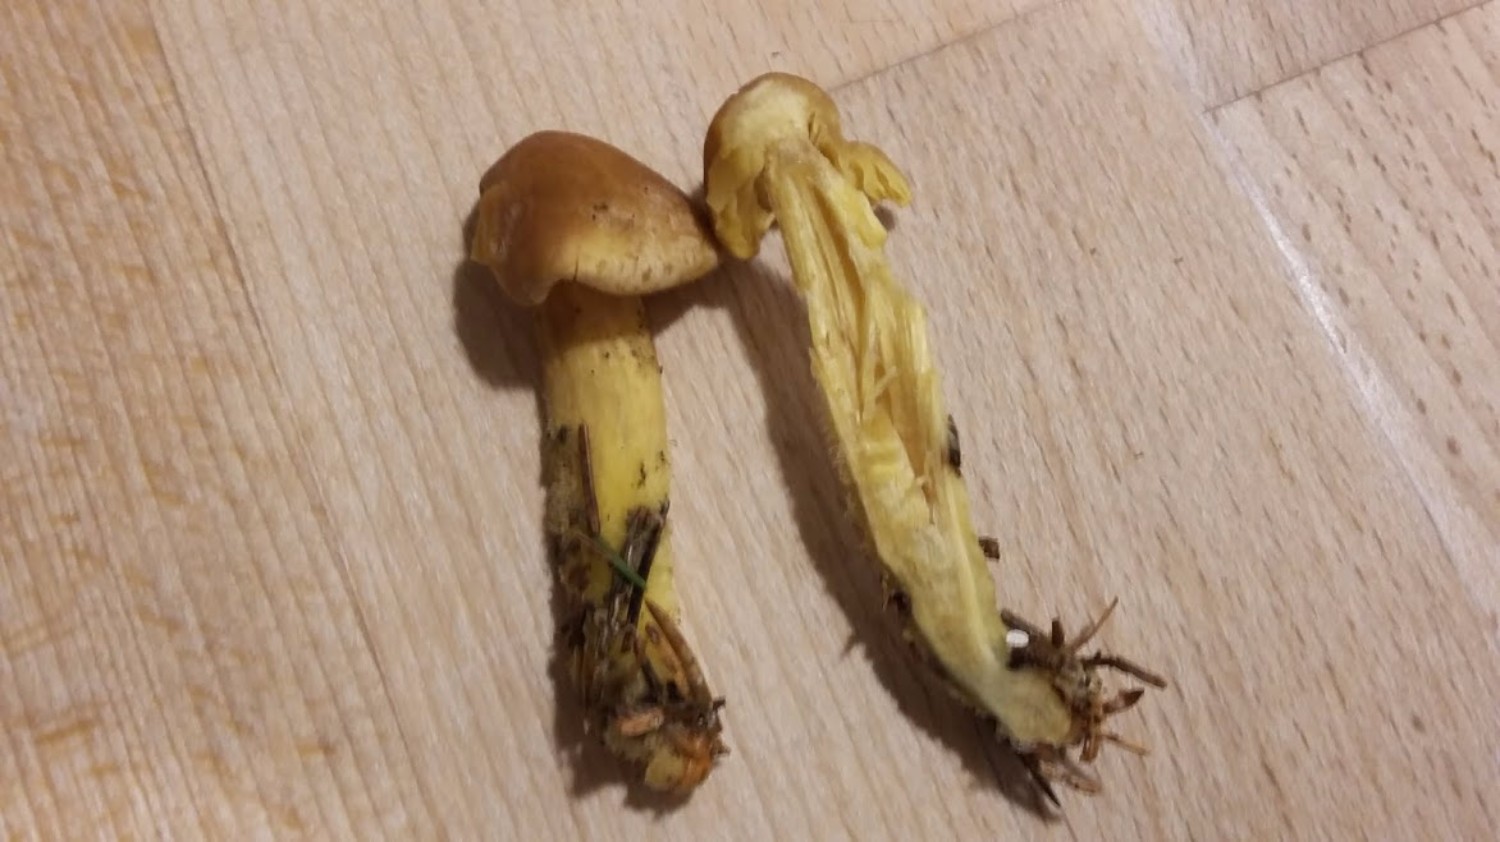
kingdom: Fungi
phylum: Basidiomycota
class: Agaricomycetes
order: Agaricales
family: Omphalotaceae
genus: Collybiopsis
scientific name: Collybiopsis peronata
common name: bestøvlet fladhat
